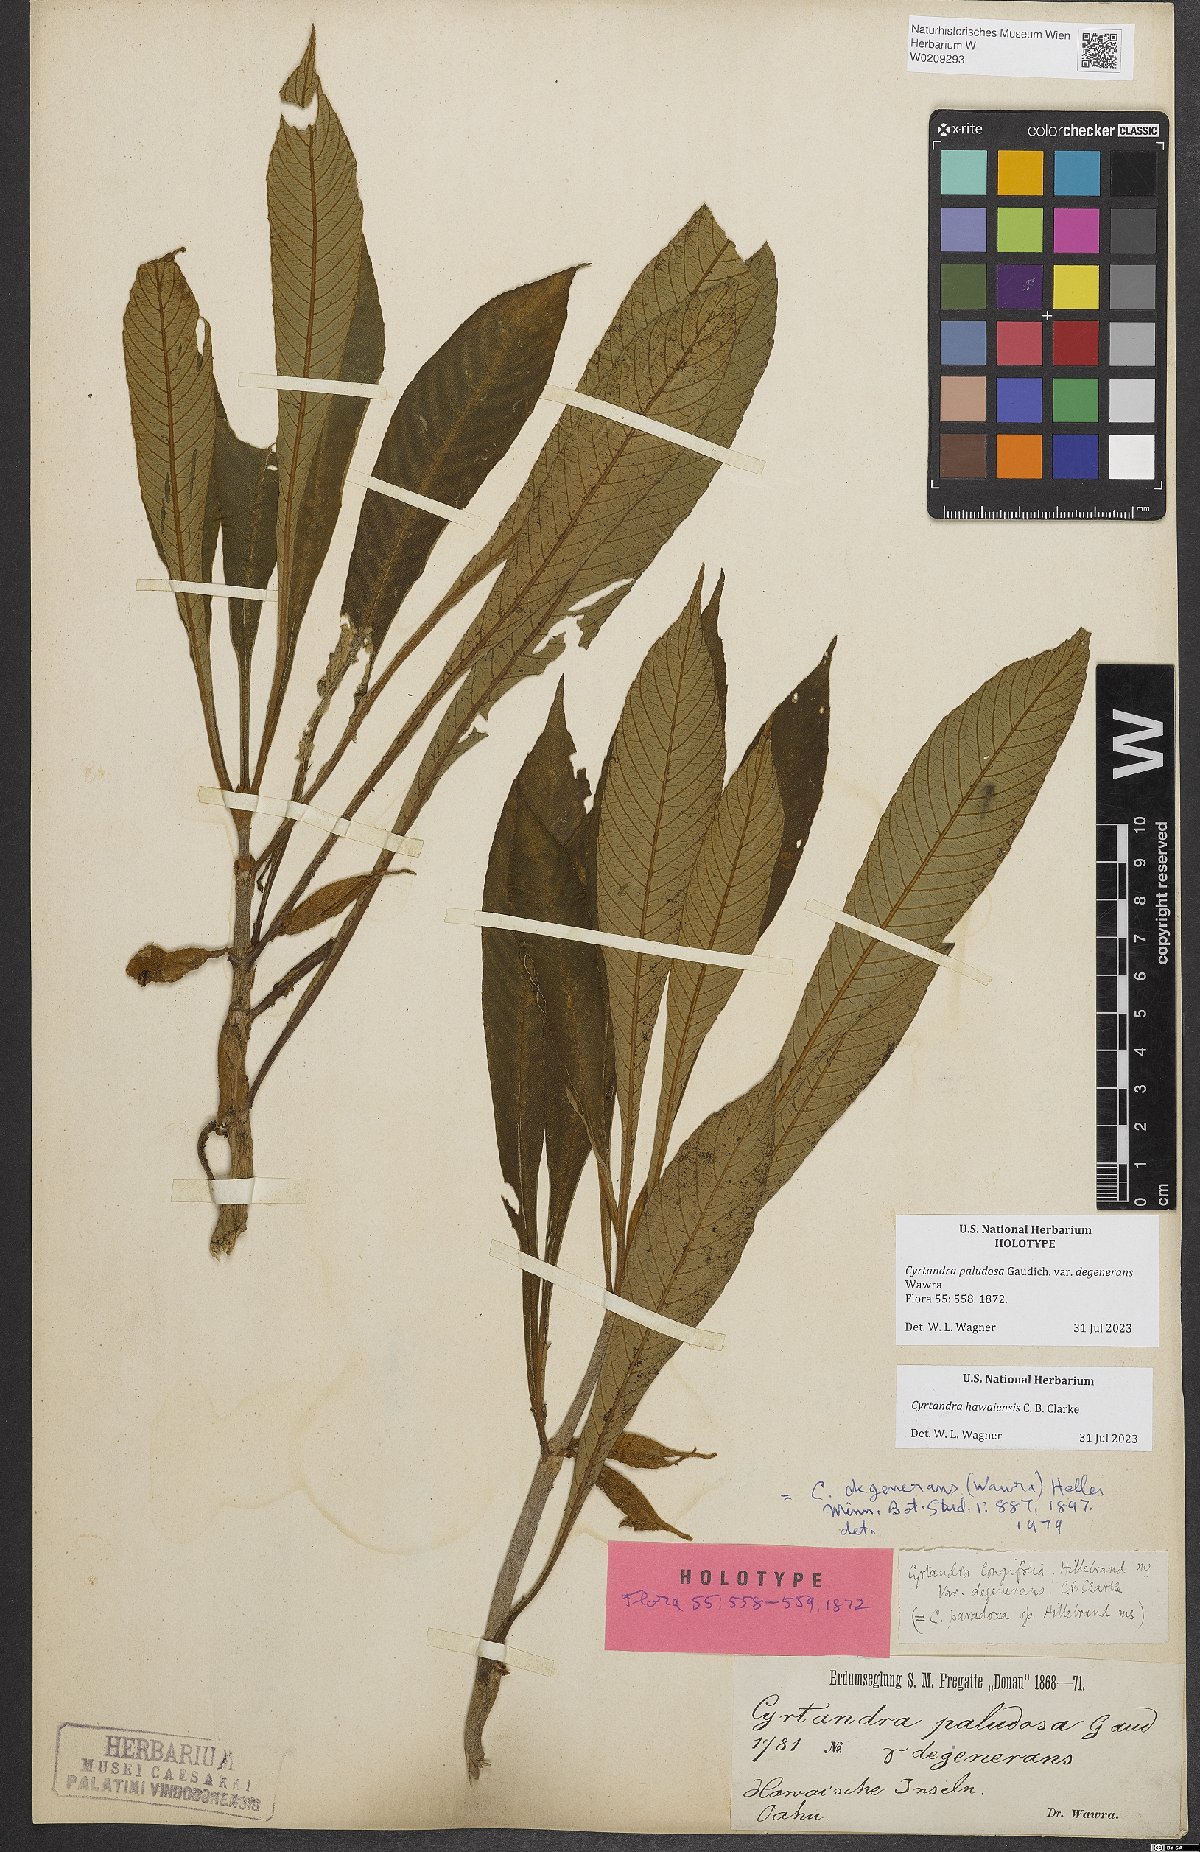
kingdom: Plantae
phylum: Tracheophyta
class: Magnoliopsida
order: Lamiales
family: Gesneriaceae
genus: Cyrtandra
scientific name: Cyrtandra hawaiensis
